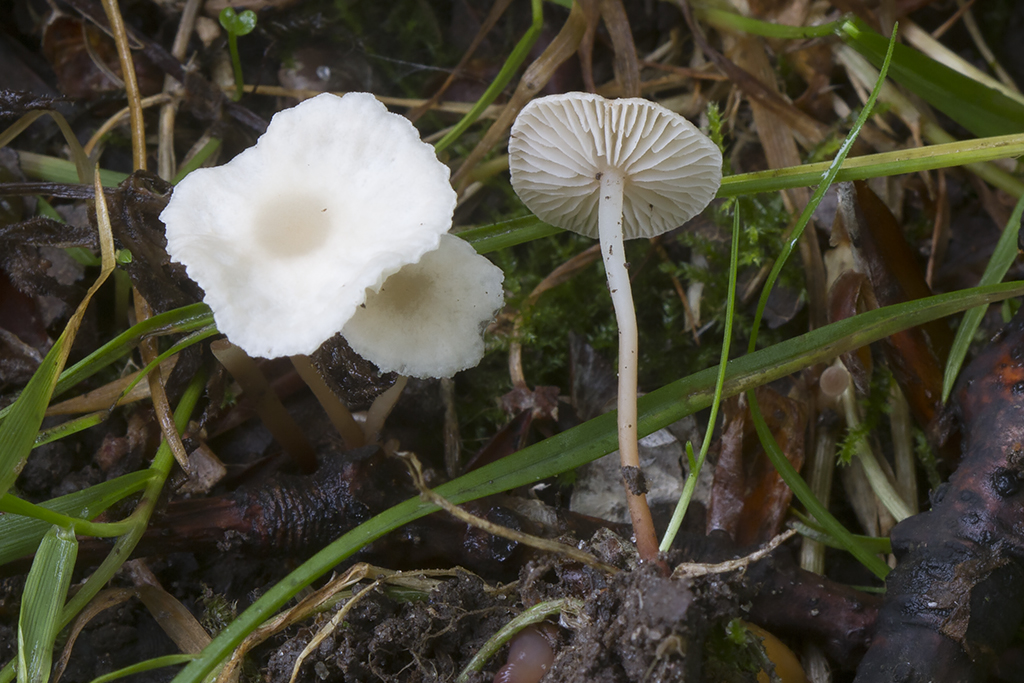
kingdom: Fungi
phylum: Basidiomycota
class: Agaricomycetes
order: Agaricales
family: Omphalotaceae
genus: Collybiopsis
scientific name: Collybiopsis vaillantii
